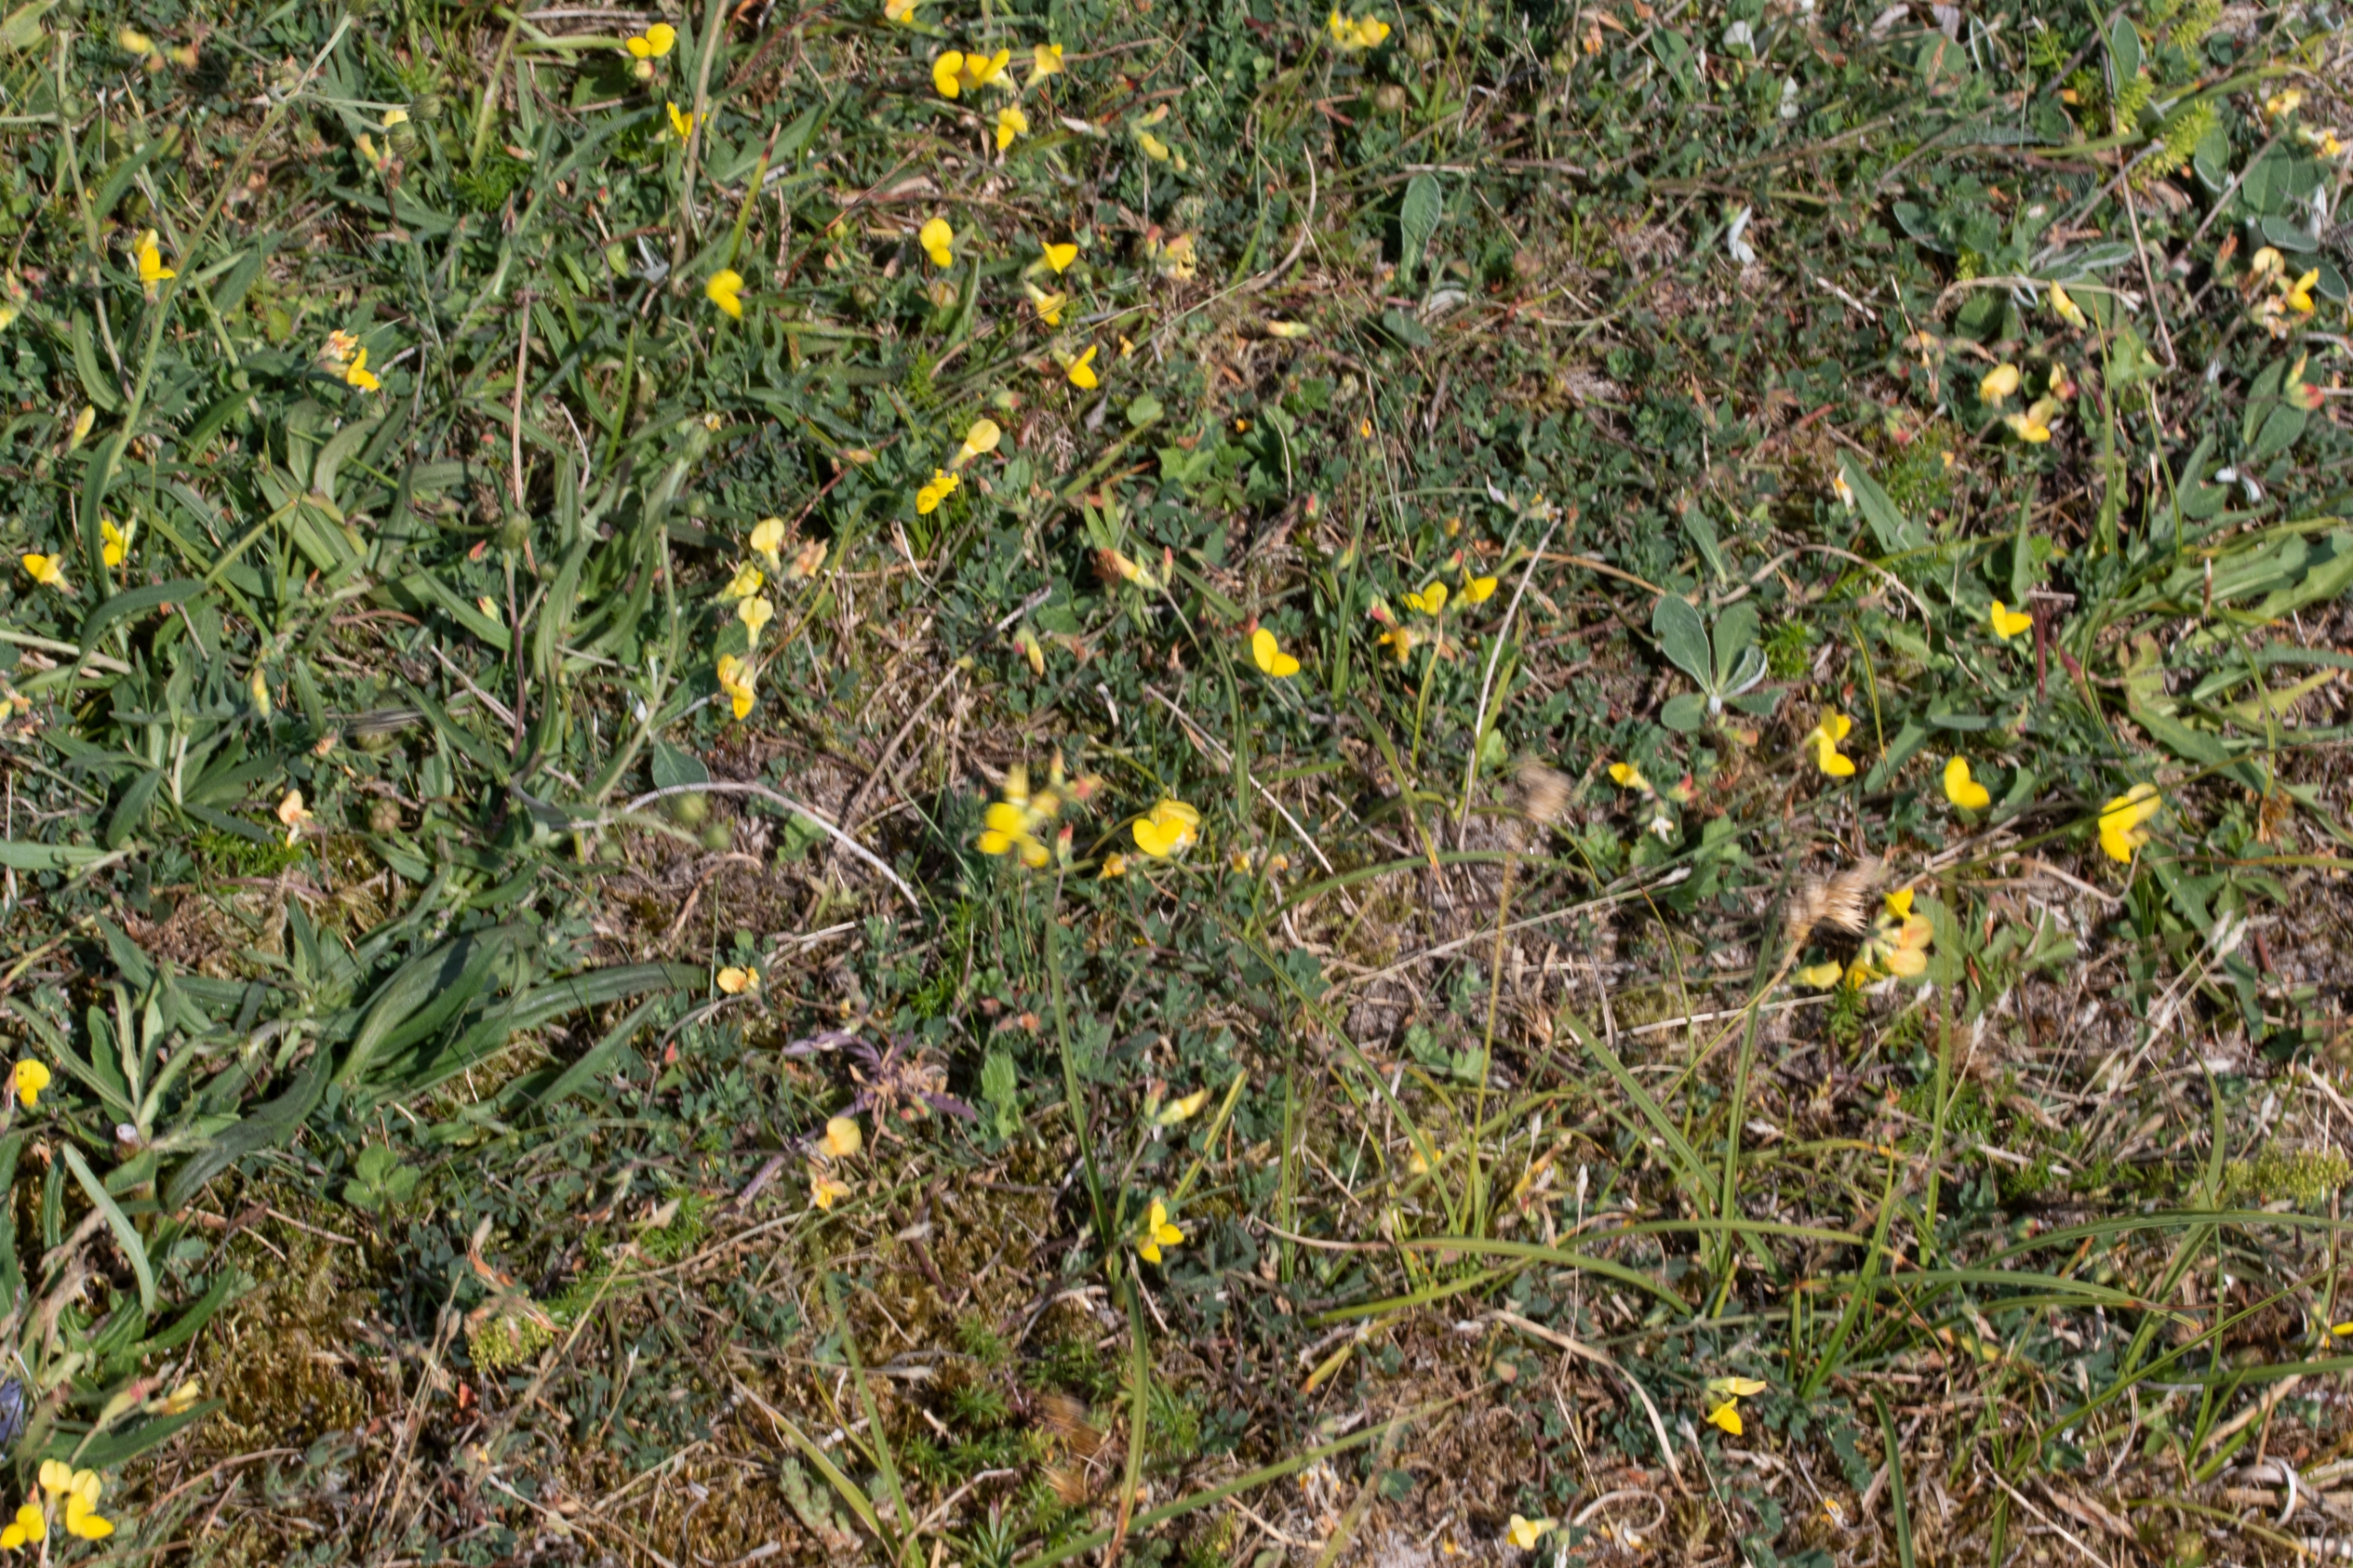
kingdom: Plantae
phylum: Tracheophyta
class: Magnoliopsida
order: Fabales
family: Fabaceae
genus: Lotus
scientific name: Lotus corniculatus
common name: Almindelig kællingetand
